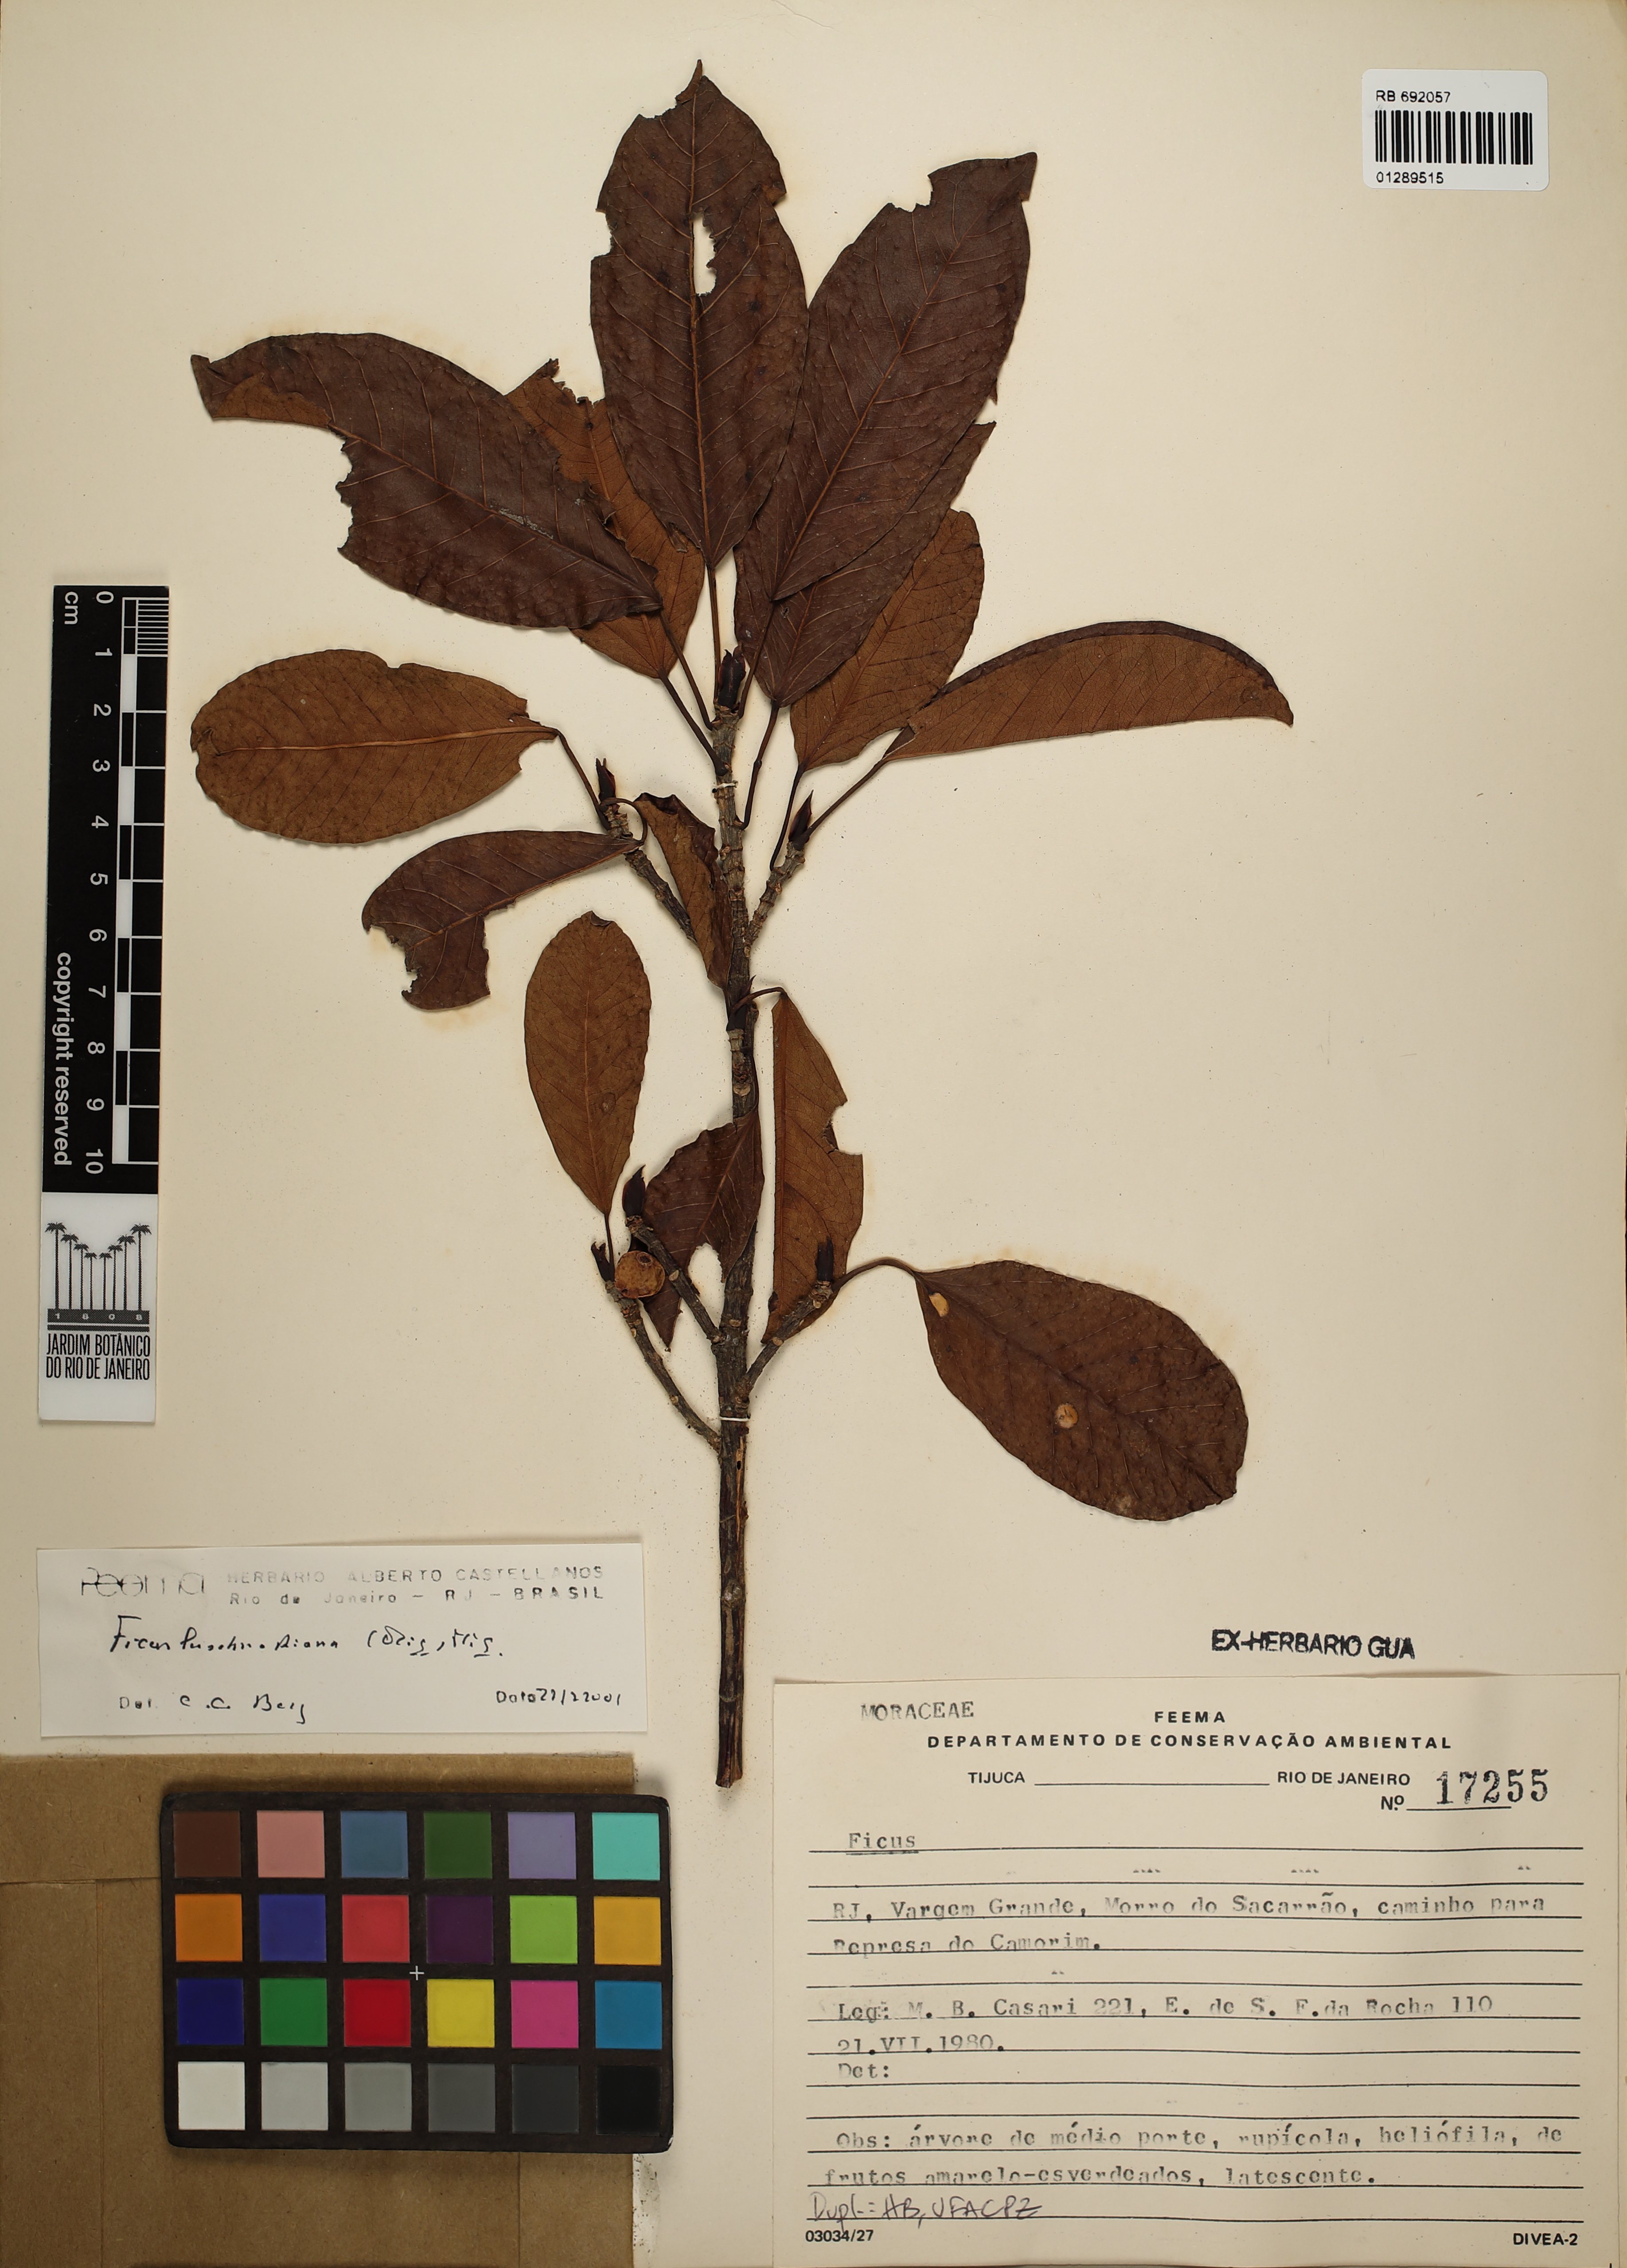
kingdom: Plantae
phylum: Tracheophyta
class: Magnoliopsida
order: Rosales
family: Moraceae
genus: Ficus
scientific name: Ficus luschnathiana
